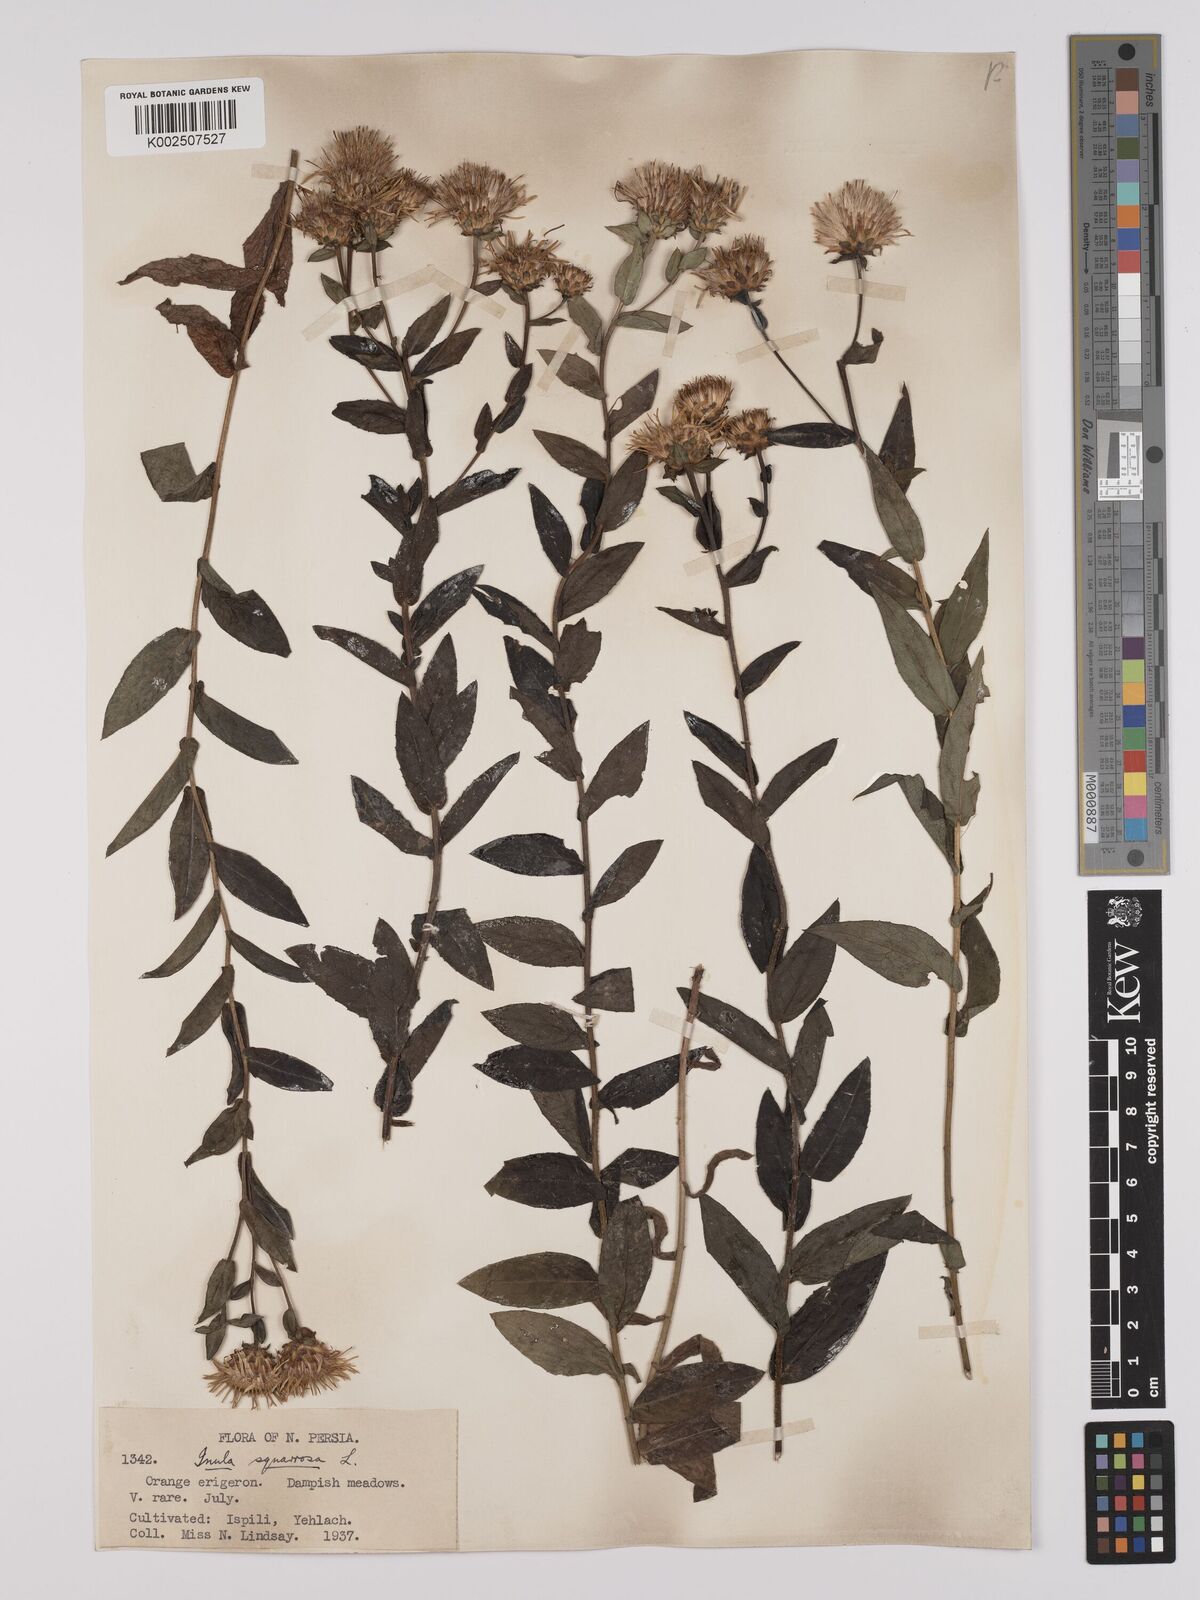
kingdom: Plantae
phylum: Tracheophyta
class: Magnoliopsida
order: Asterales
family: Asteraceae
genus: Pentanema
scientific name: Pentanema spiraeifolium
